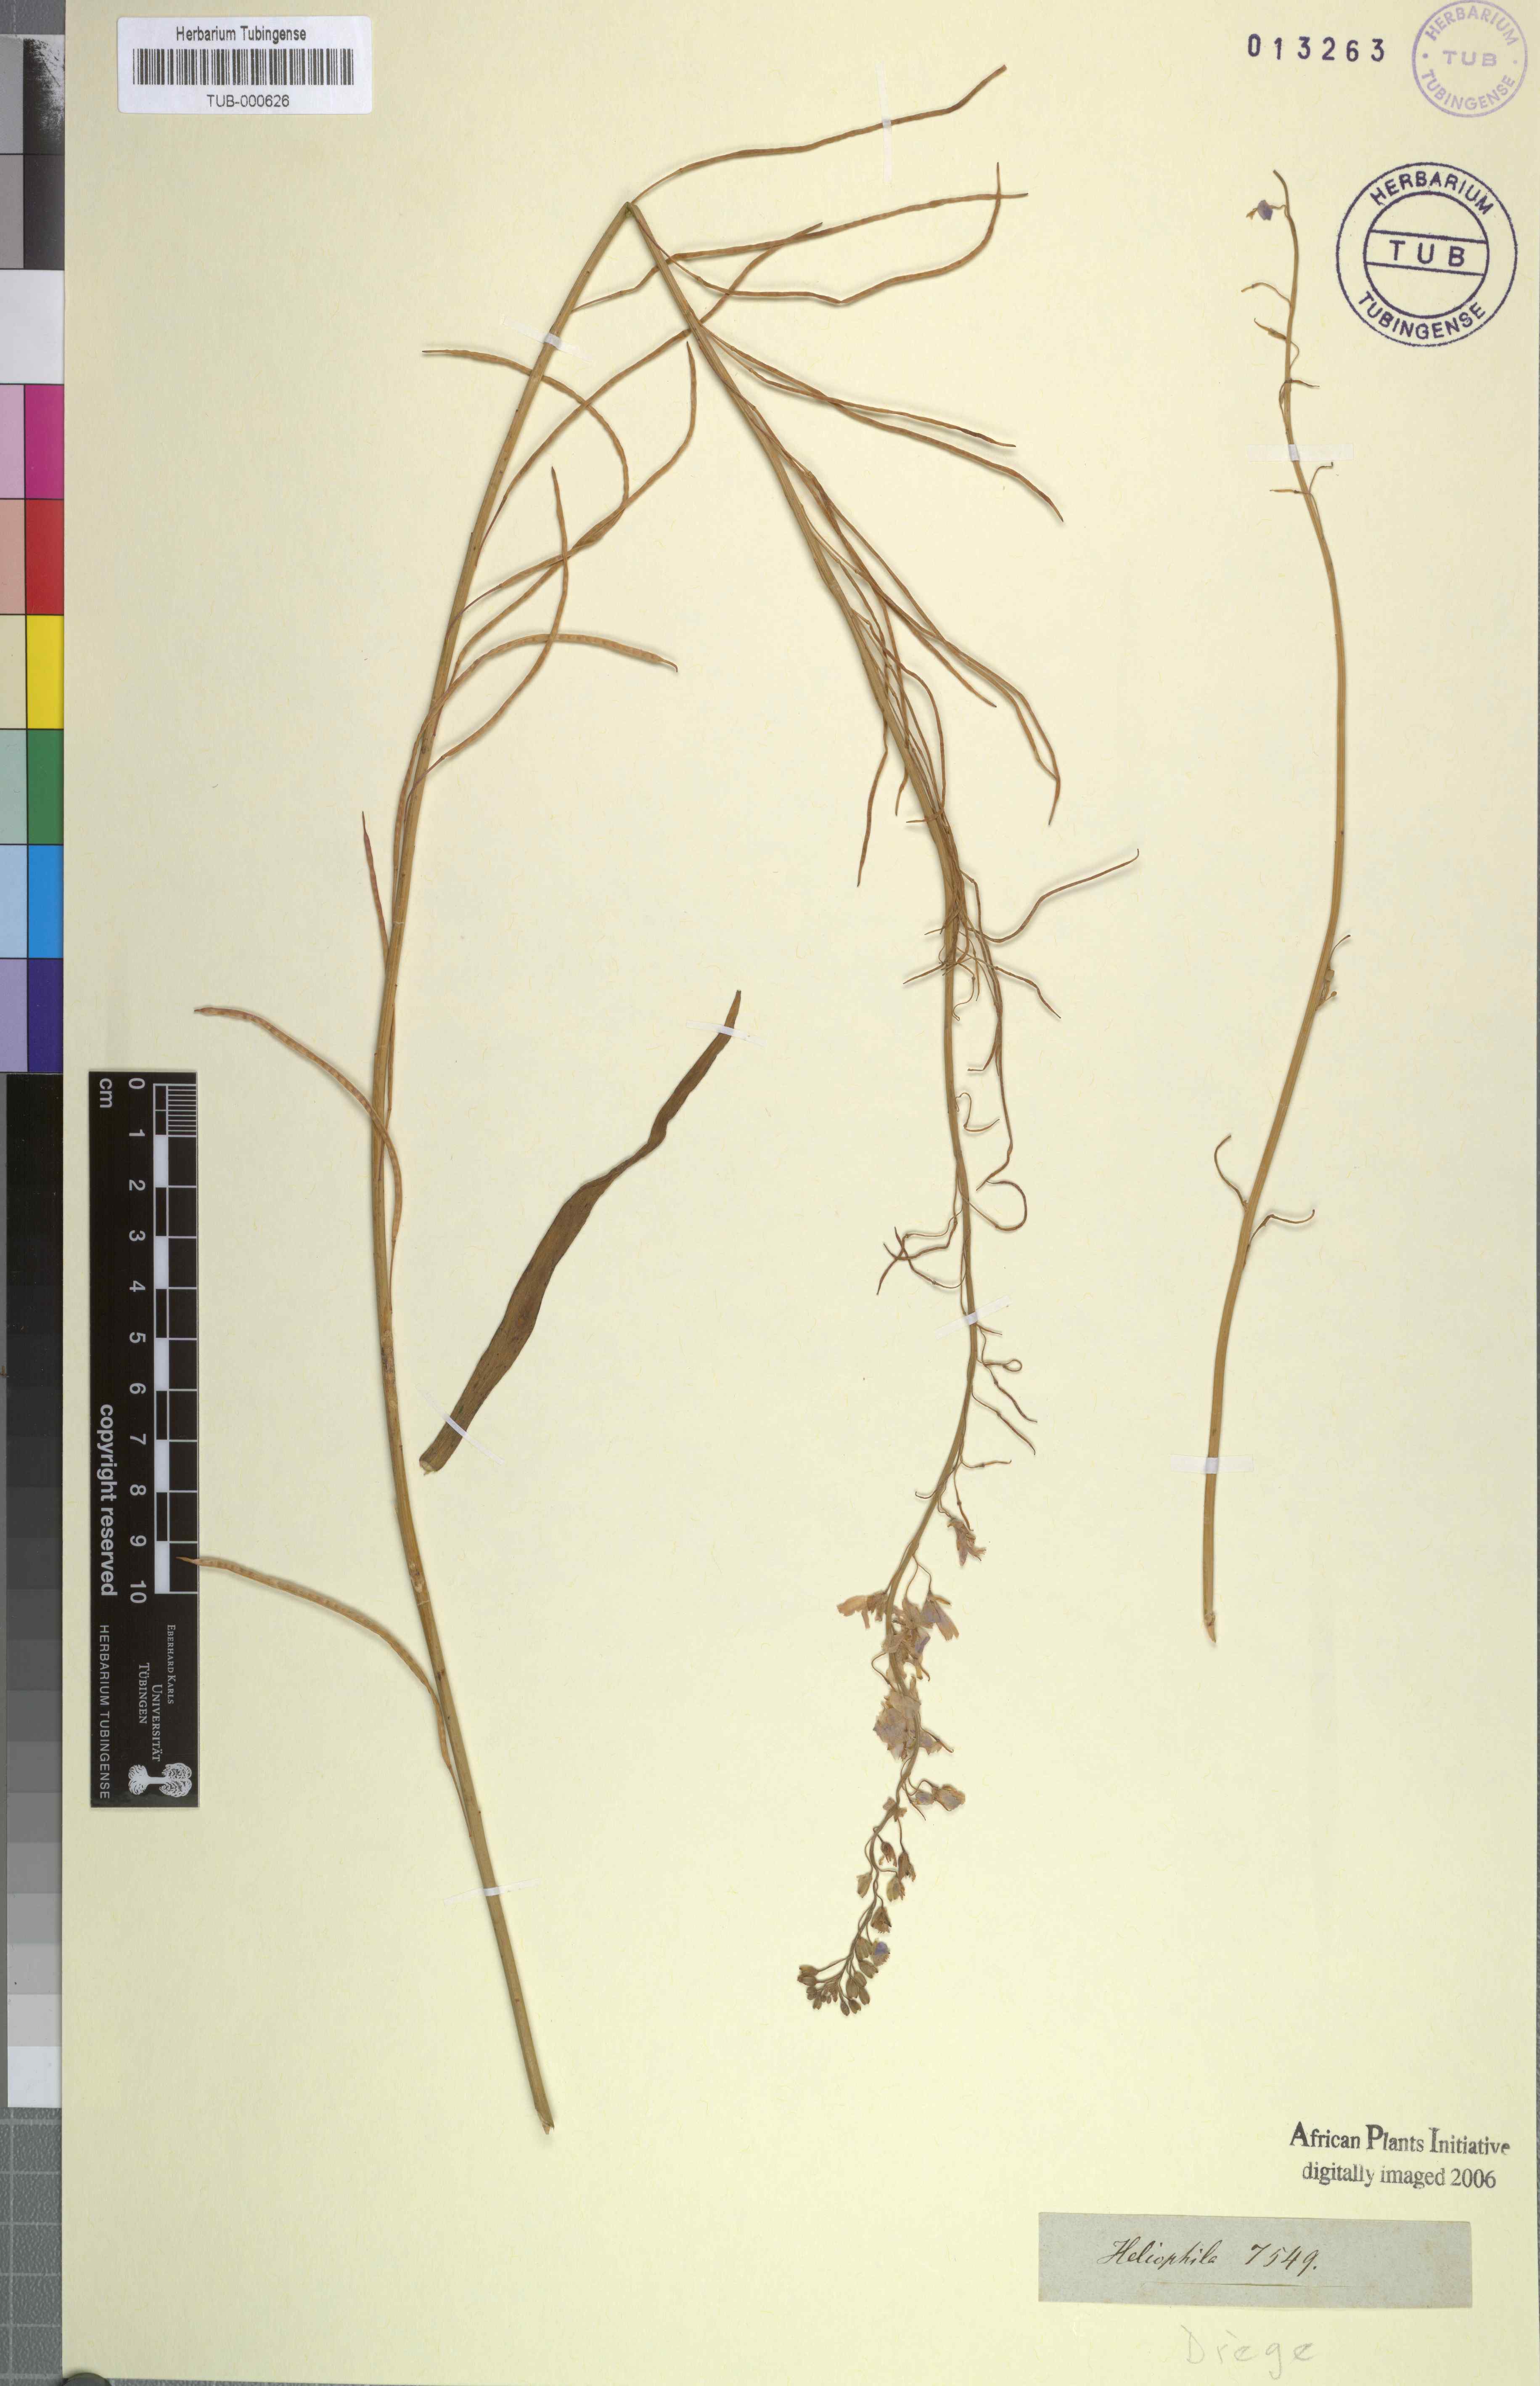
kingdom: Plantae
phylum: Tracheophyta
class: Magnoliopsida
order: Brassicales
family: Brassicaceae
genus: Heliophila
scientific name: Heliophila
